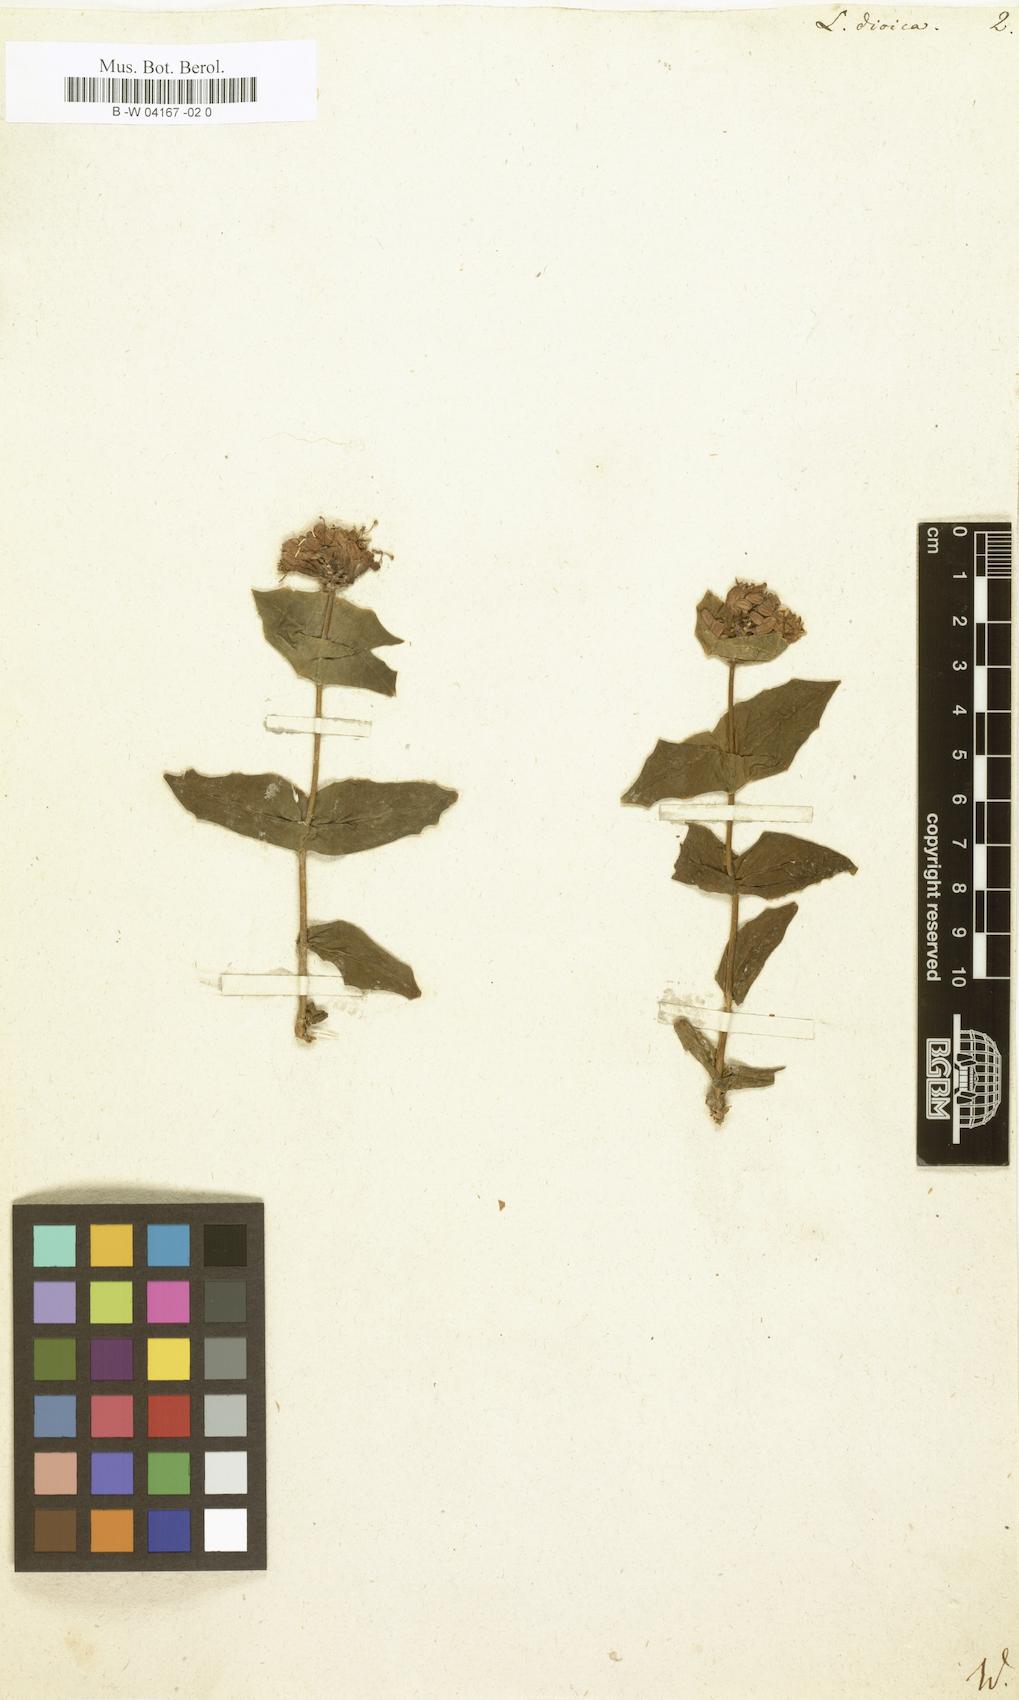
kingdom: Plantae
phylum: Tracheophyta
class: Magnoliopsida
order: Dipsacales
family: Caprifoliaceae
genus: Lonicera
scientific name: Lonicera dioica
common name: Limber honeysuckle
